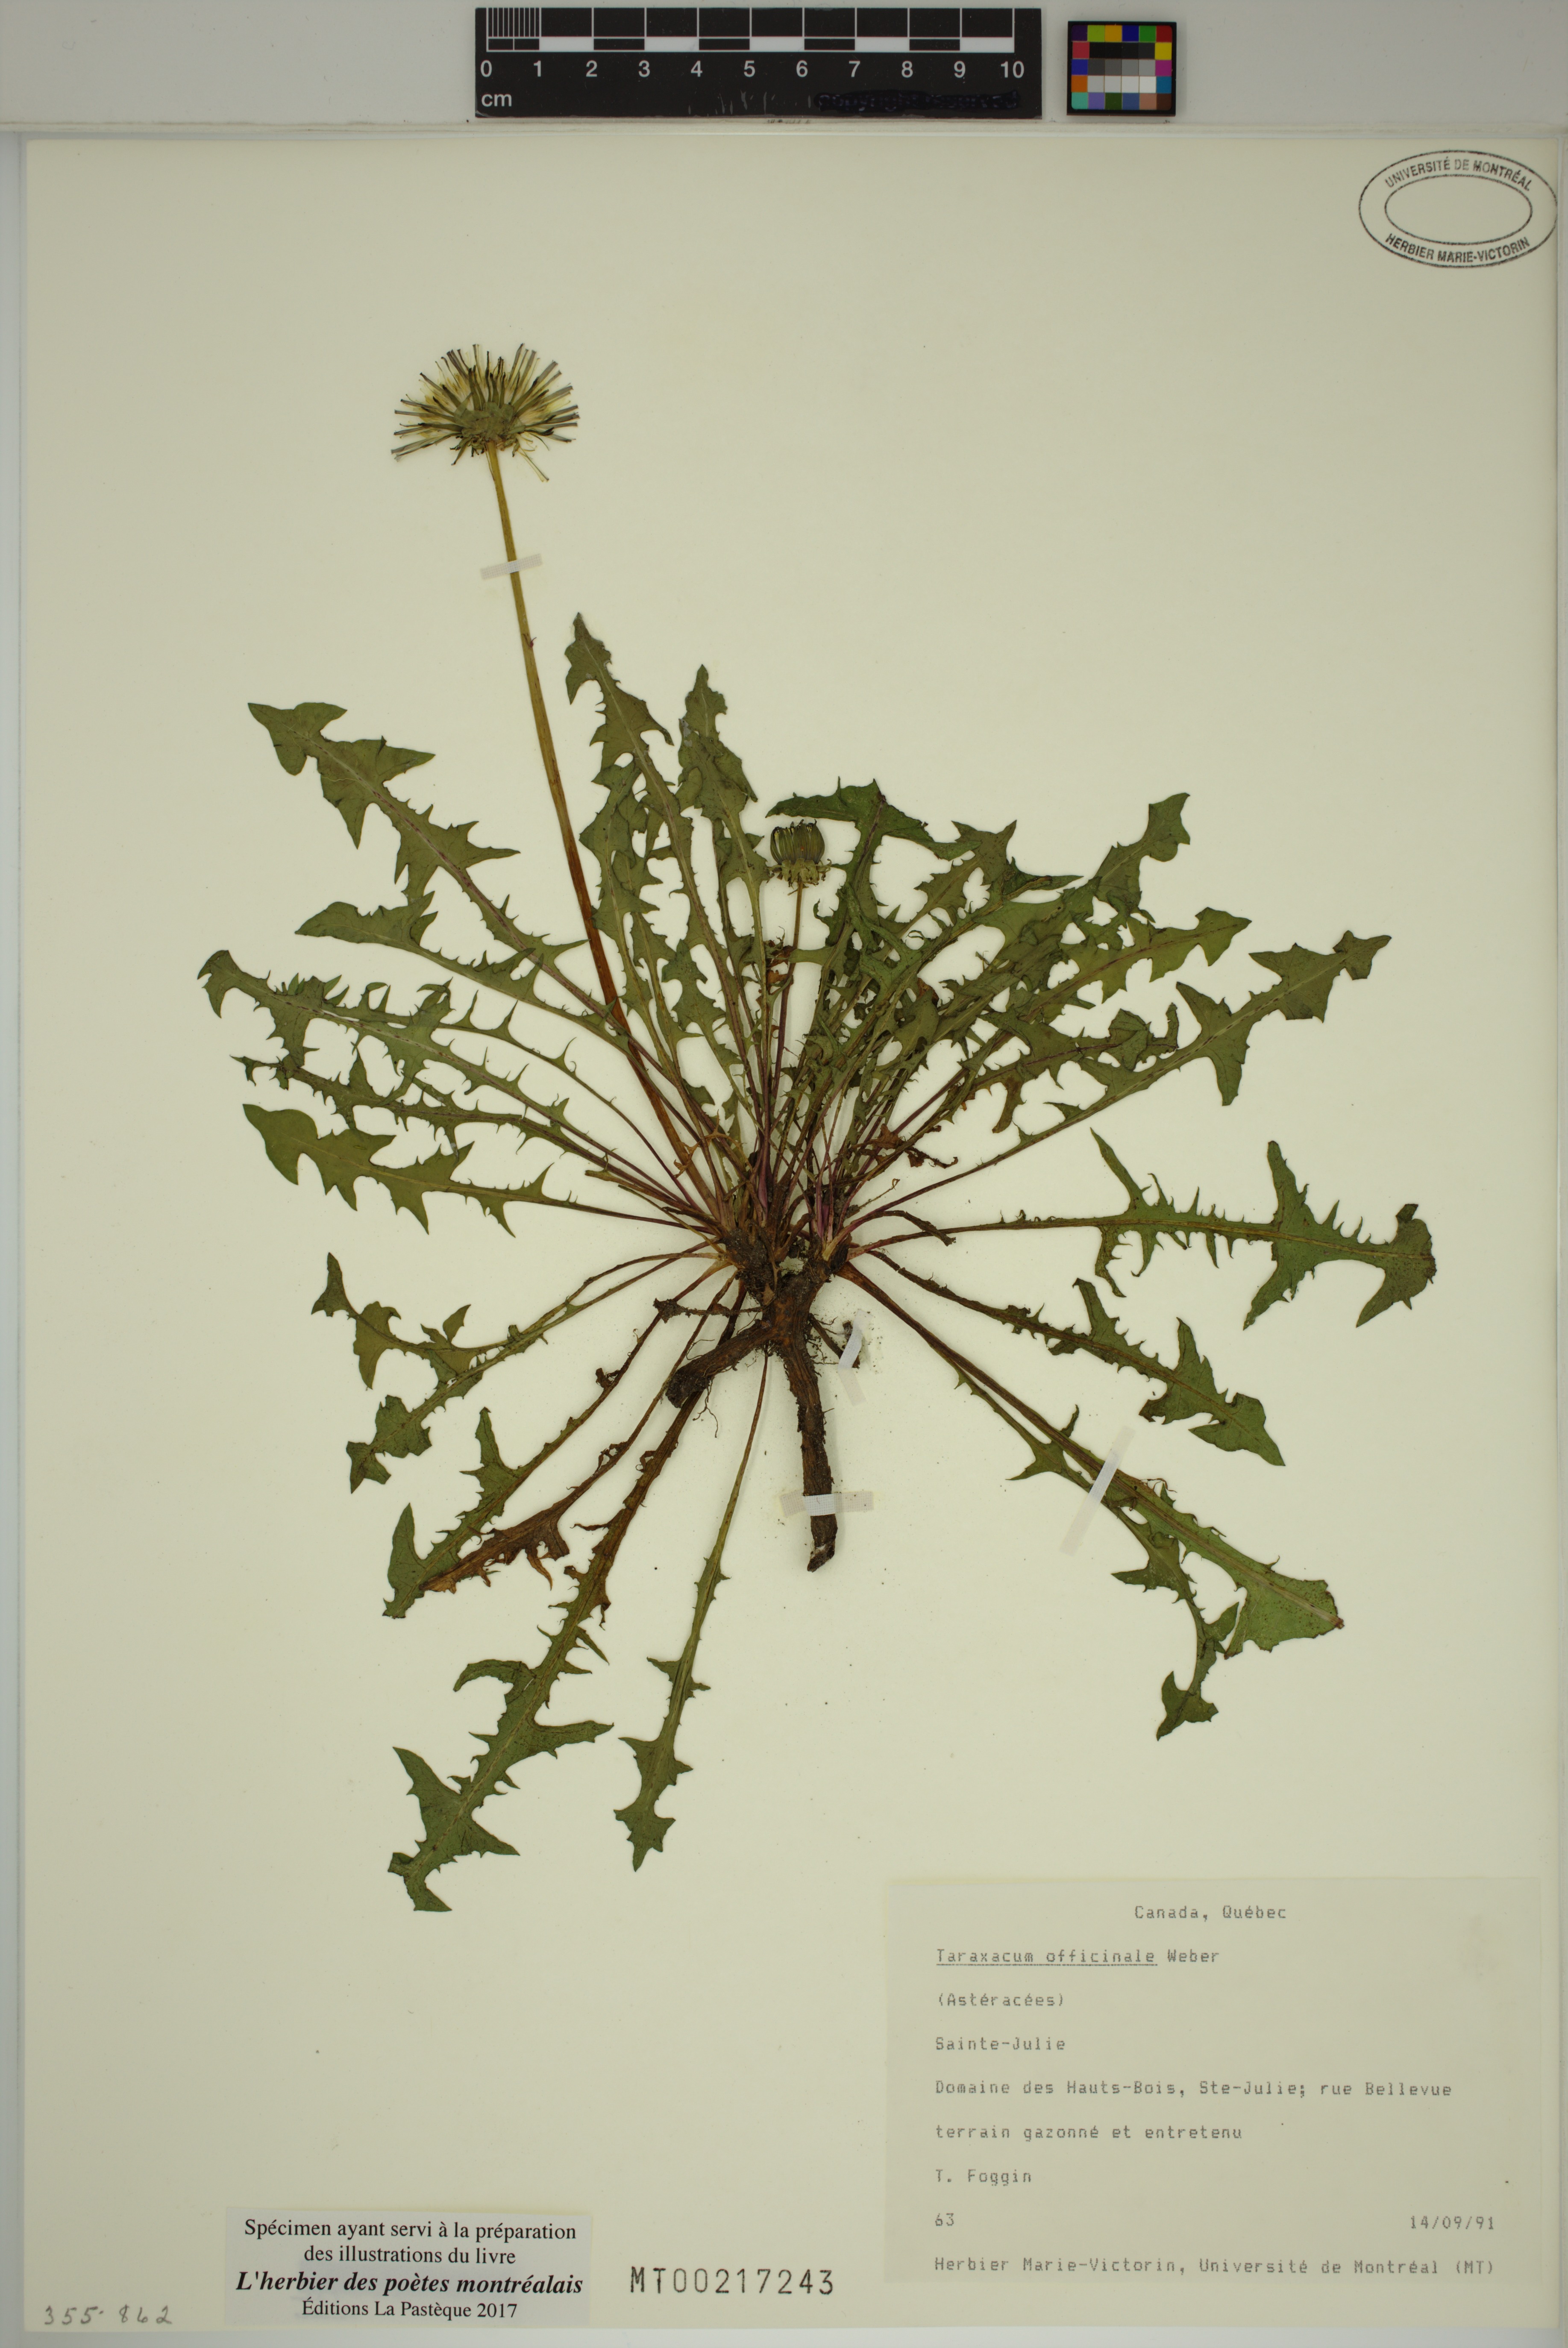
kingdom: Plantae
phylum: Tracheophyta
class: Magnoliopsida
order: Asterales
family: Asteraceae
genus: Taraxacum
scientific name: Taraxacum officinale
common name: Common dandelion
